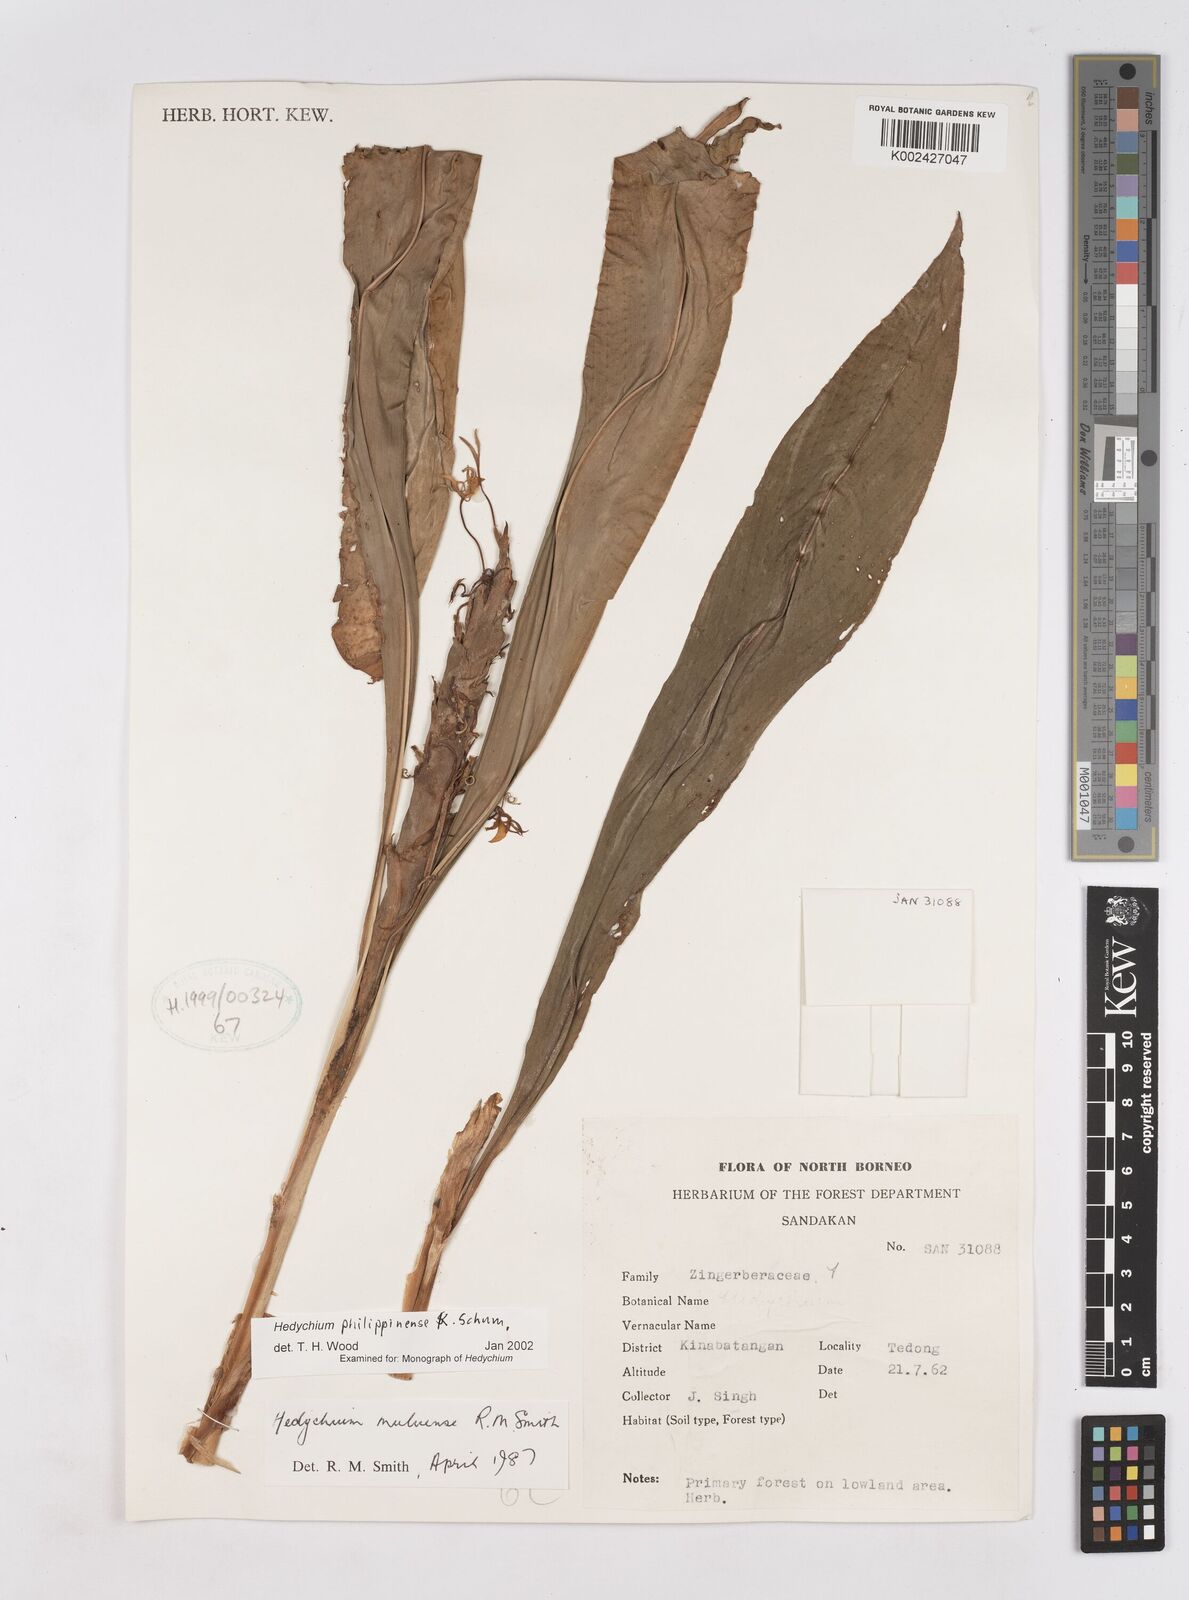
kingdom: Plantae
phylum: Tracheophyta
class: Liliopsida
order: Zingiberales
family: Zingiberaceae
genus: Hedychium
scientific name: Hedychium philippinense
